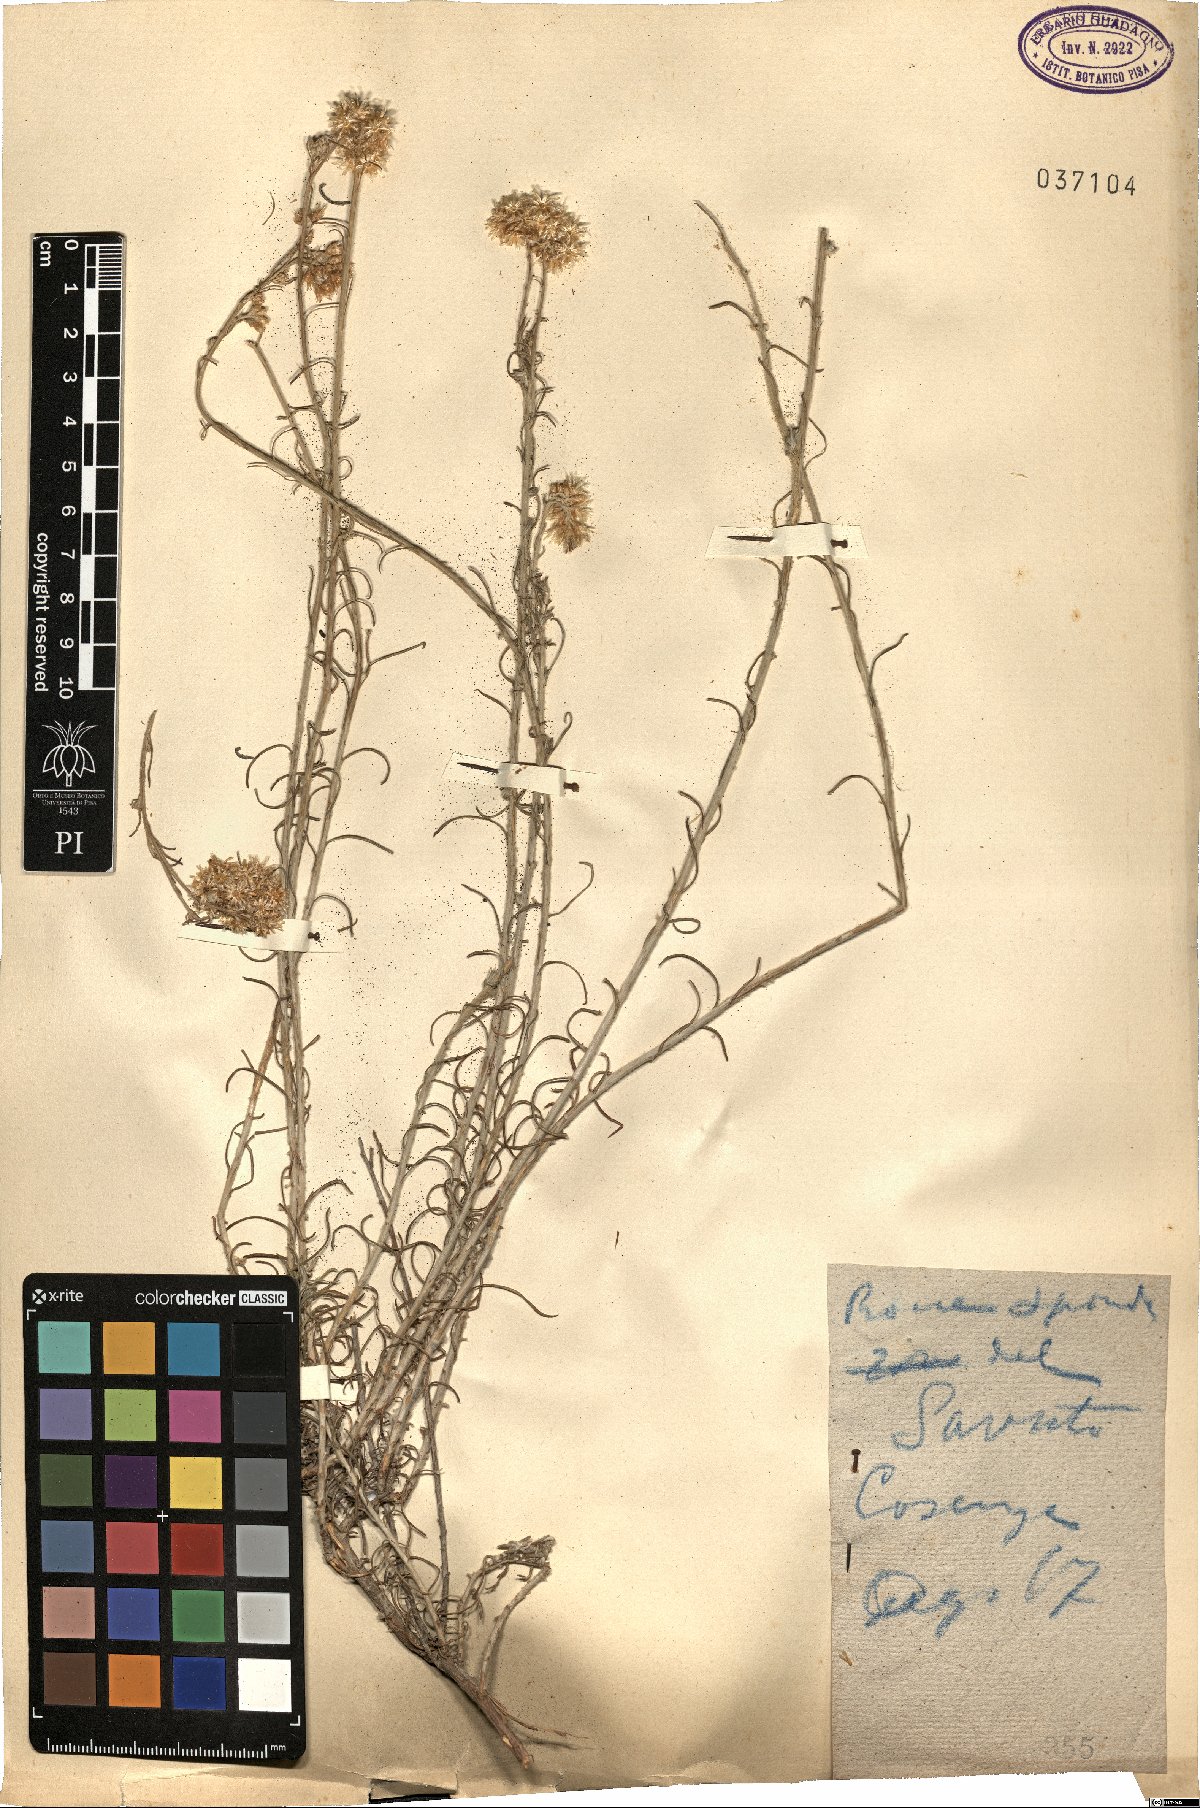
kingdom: Plantae
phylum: Tracheophyta
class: Magnoliopsida
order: Asterales
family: Asteraceae
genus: Helichrysum
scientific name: Helichrysum
